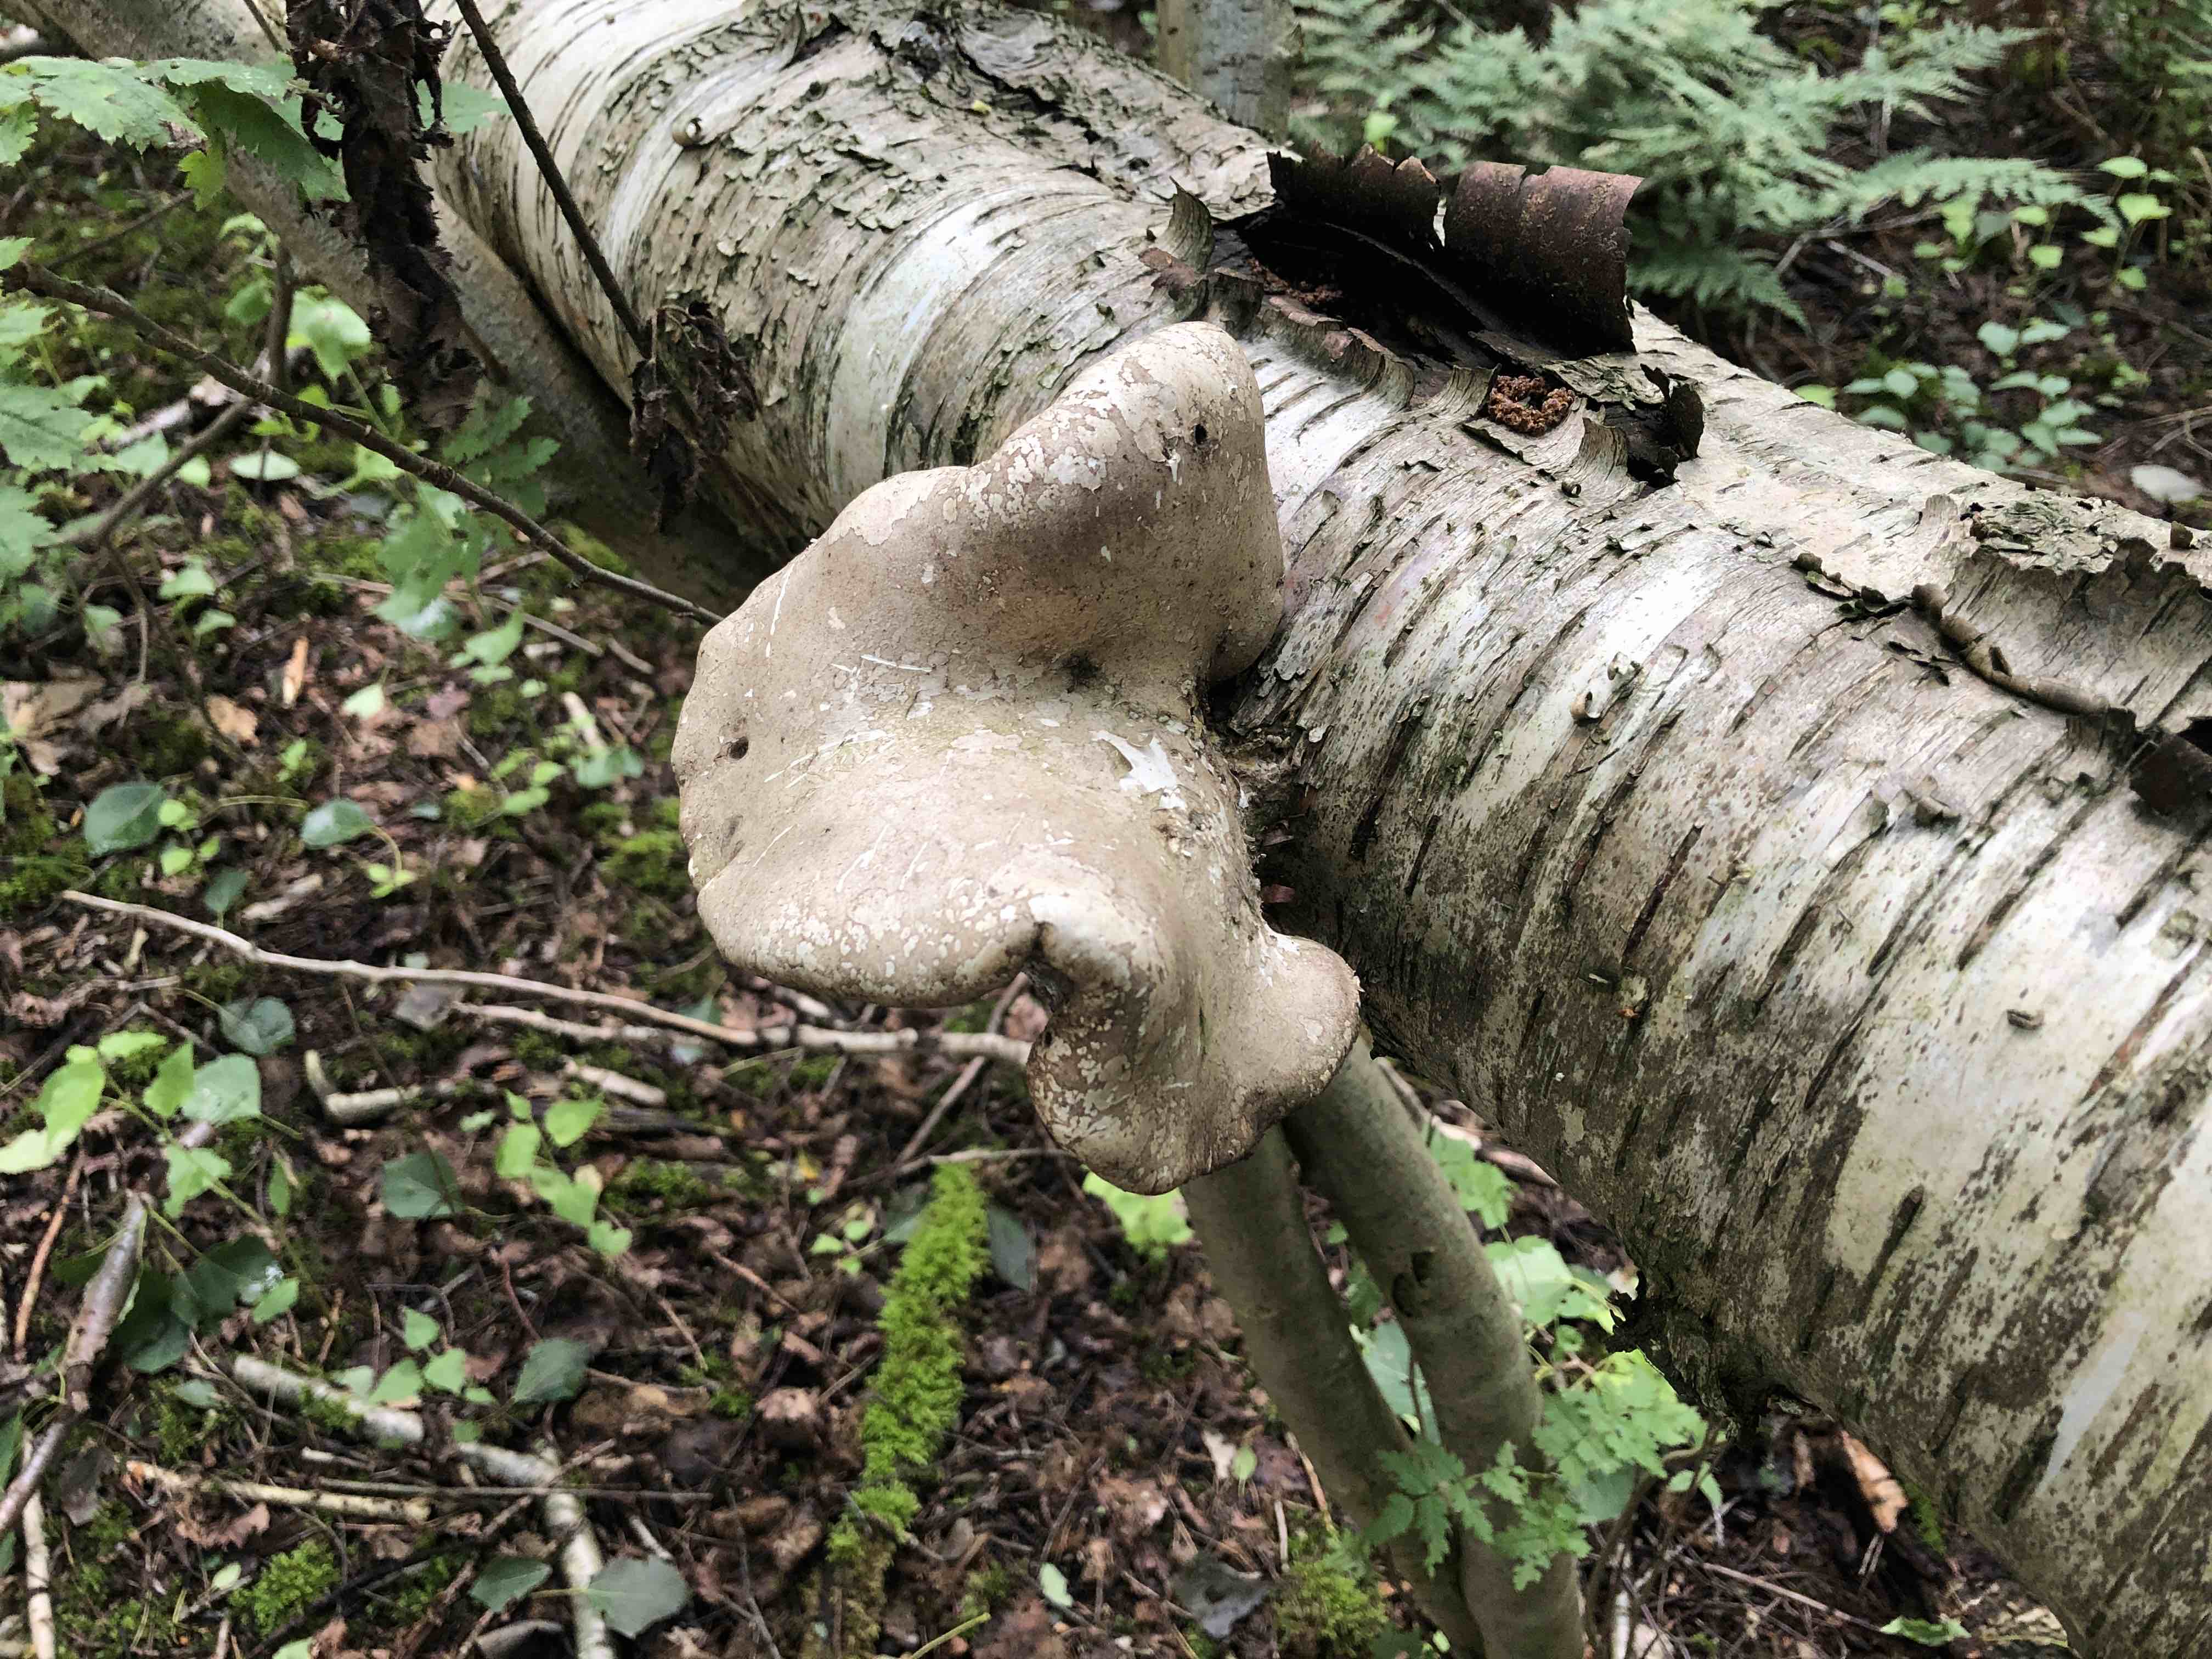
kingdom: Fungi
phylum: Basidiomycota
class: Agaricomycetes
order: Polyporales
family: Fomitopsidaceae
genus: Fomitopsis
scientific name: Fomitopsis betulina
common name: birkeporesvamp
